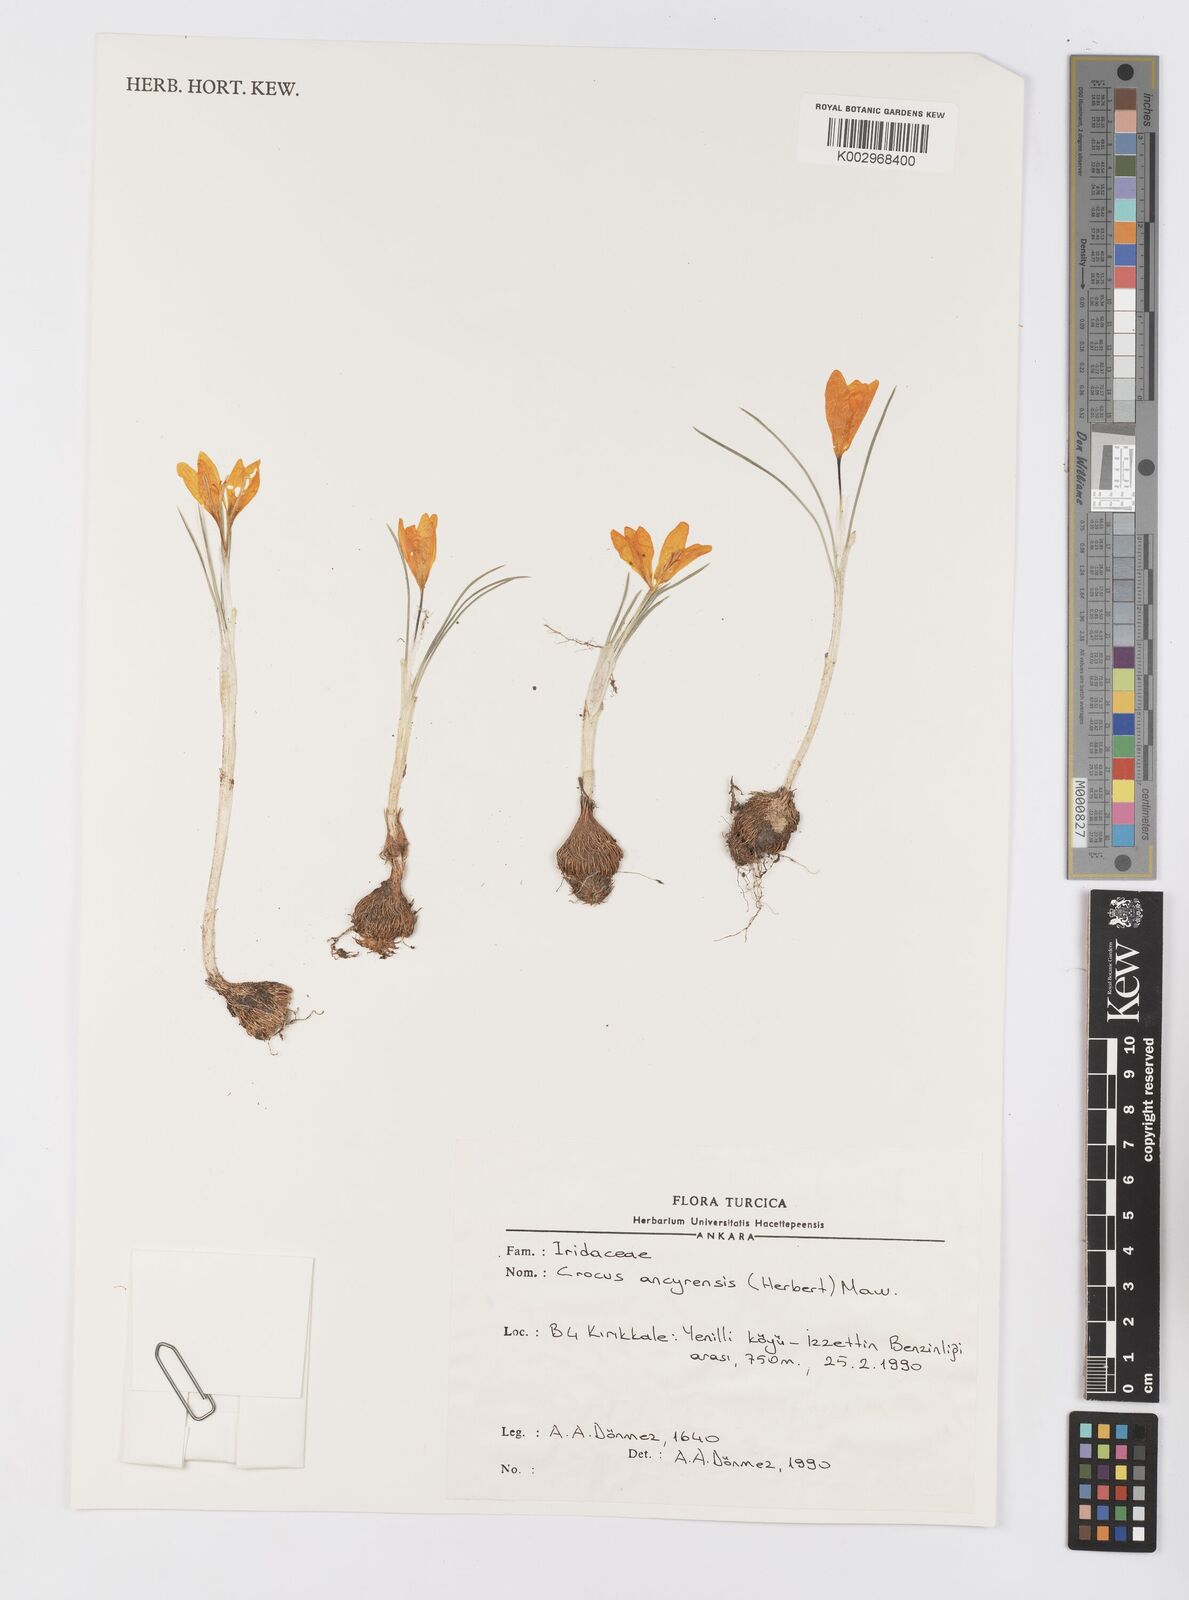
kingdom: Plantae
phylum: Tracheophyta
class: Liliopsida
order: Asparagales
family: Iridaceae
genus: Crocus
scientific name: Crocus ancyrensis
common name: Ankara crocus
